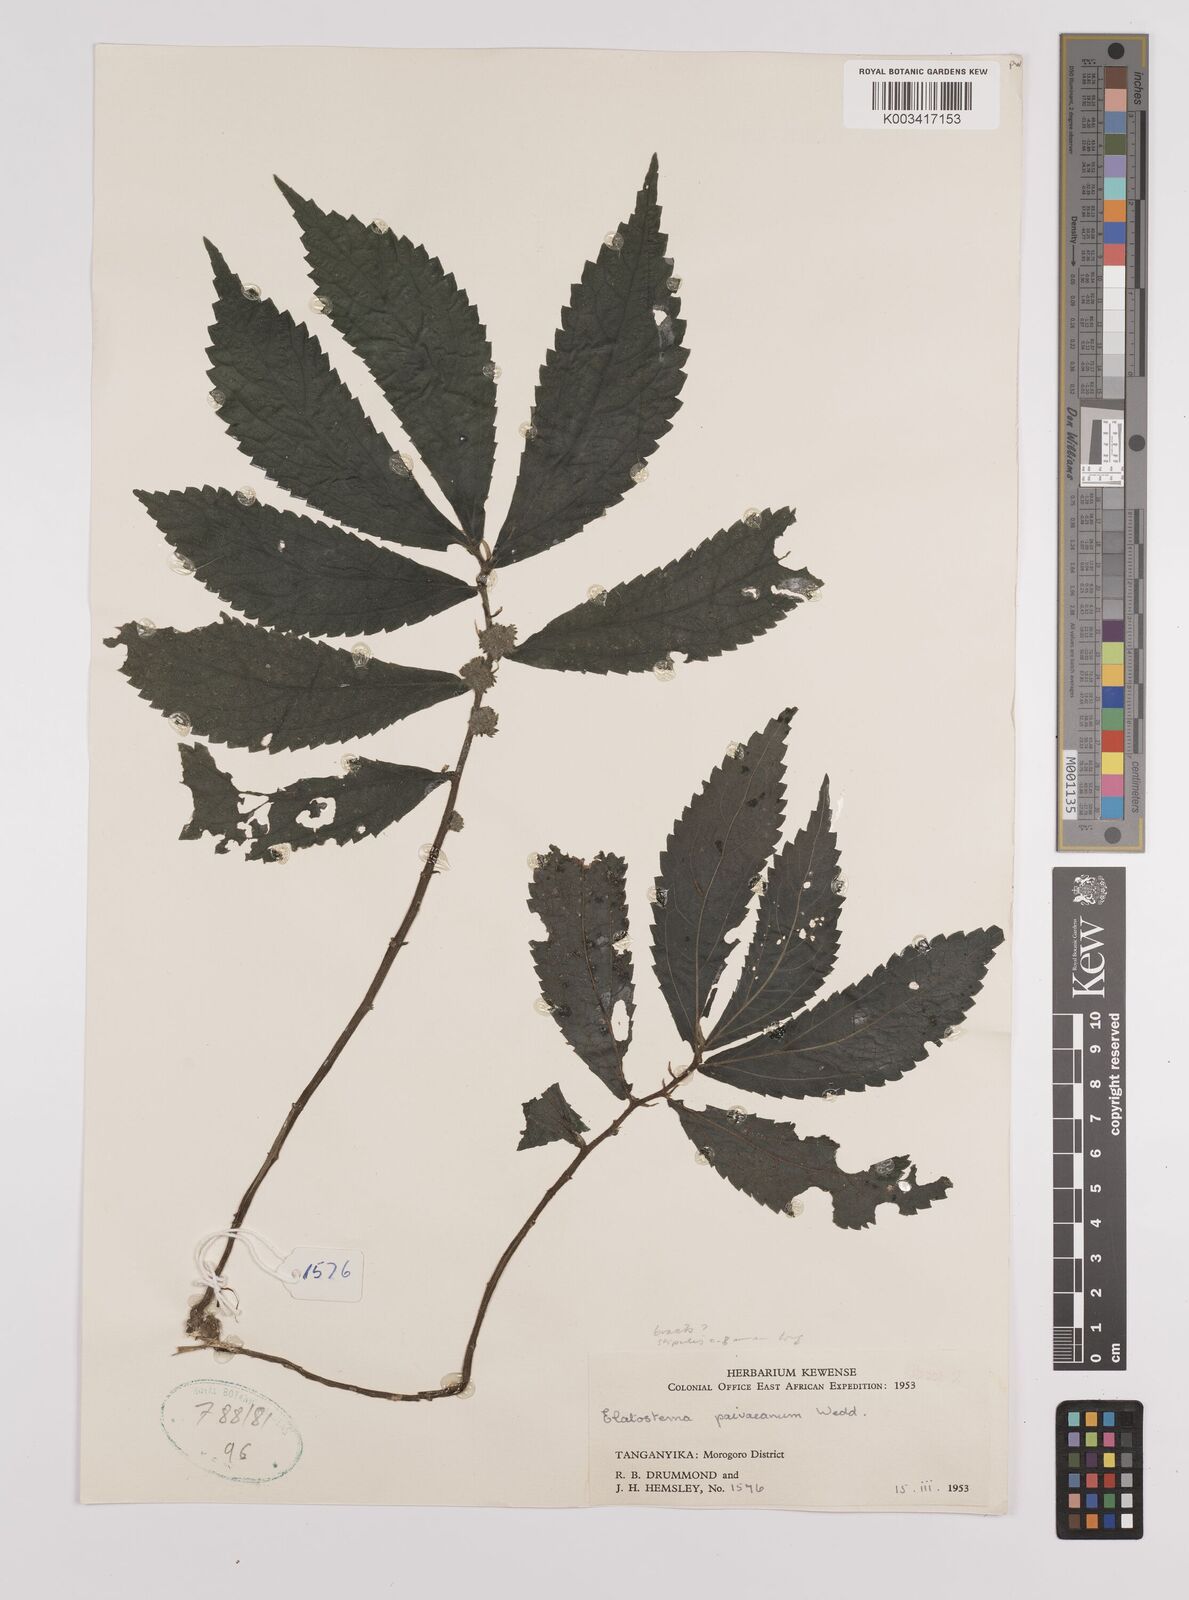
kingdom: Plantae
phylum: Tracheophyta
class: Magnoliopsida
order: Rosales
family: Urticaceae
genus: Elatostema
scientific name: Elatostema paivaeanum
